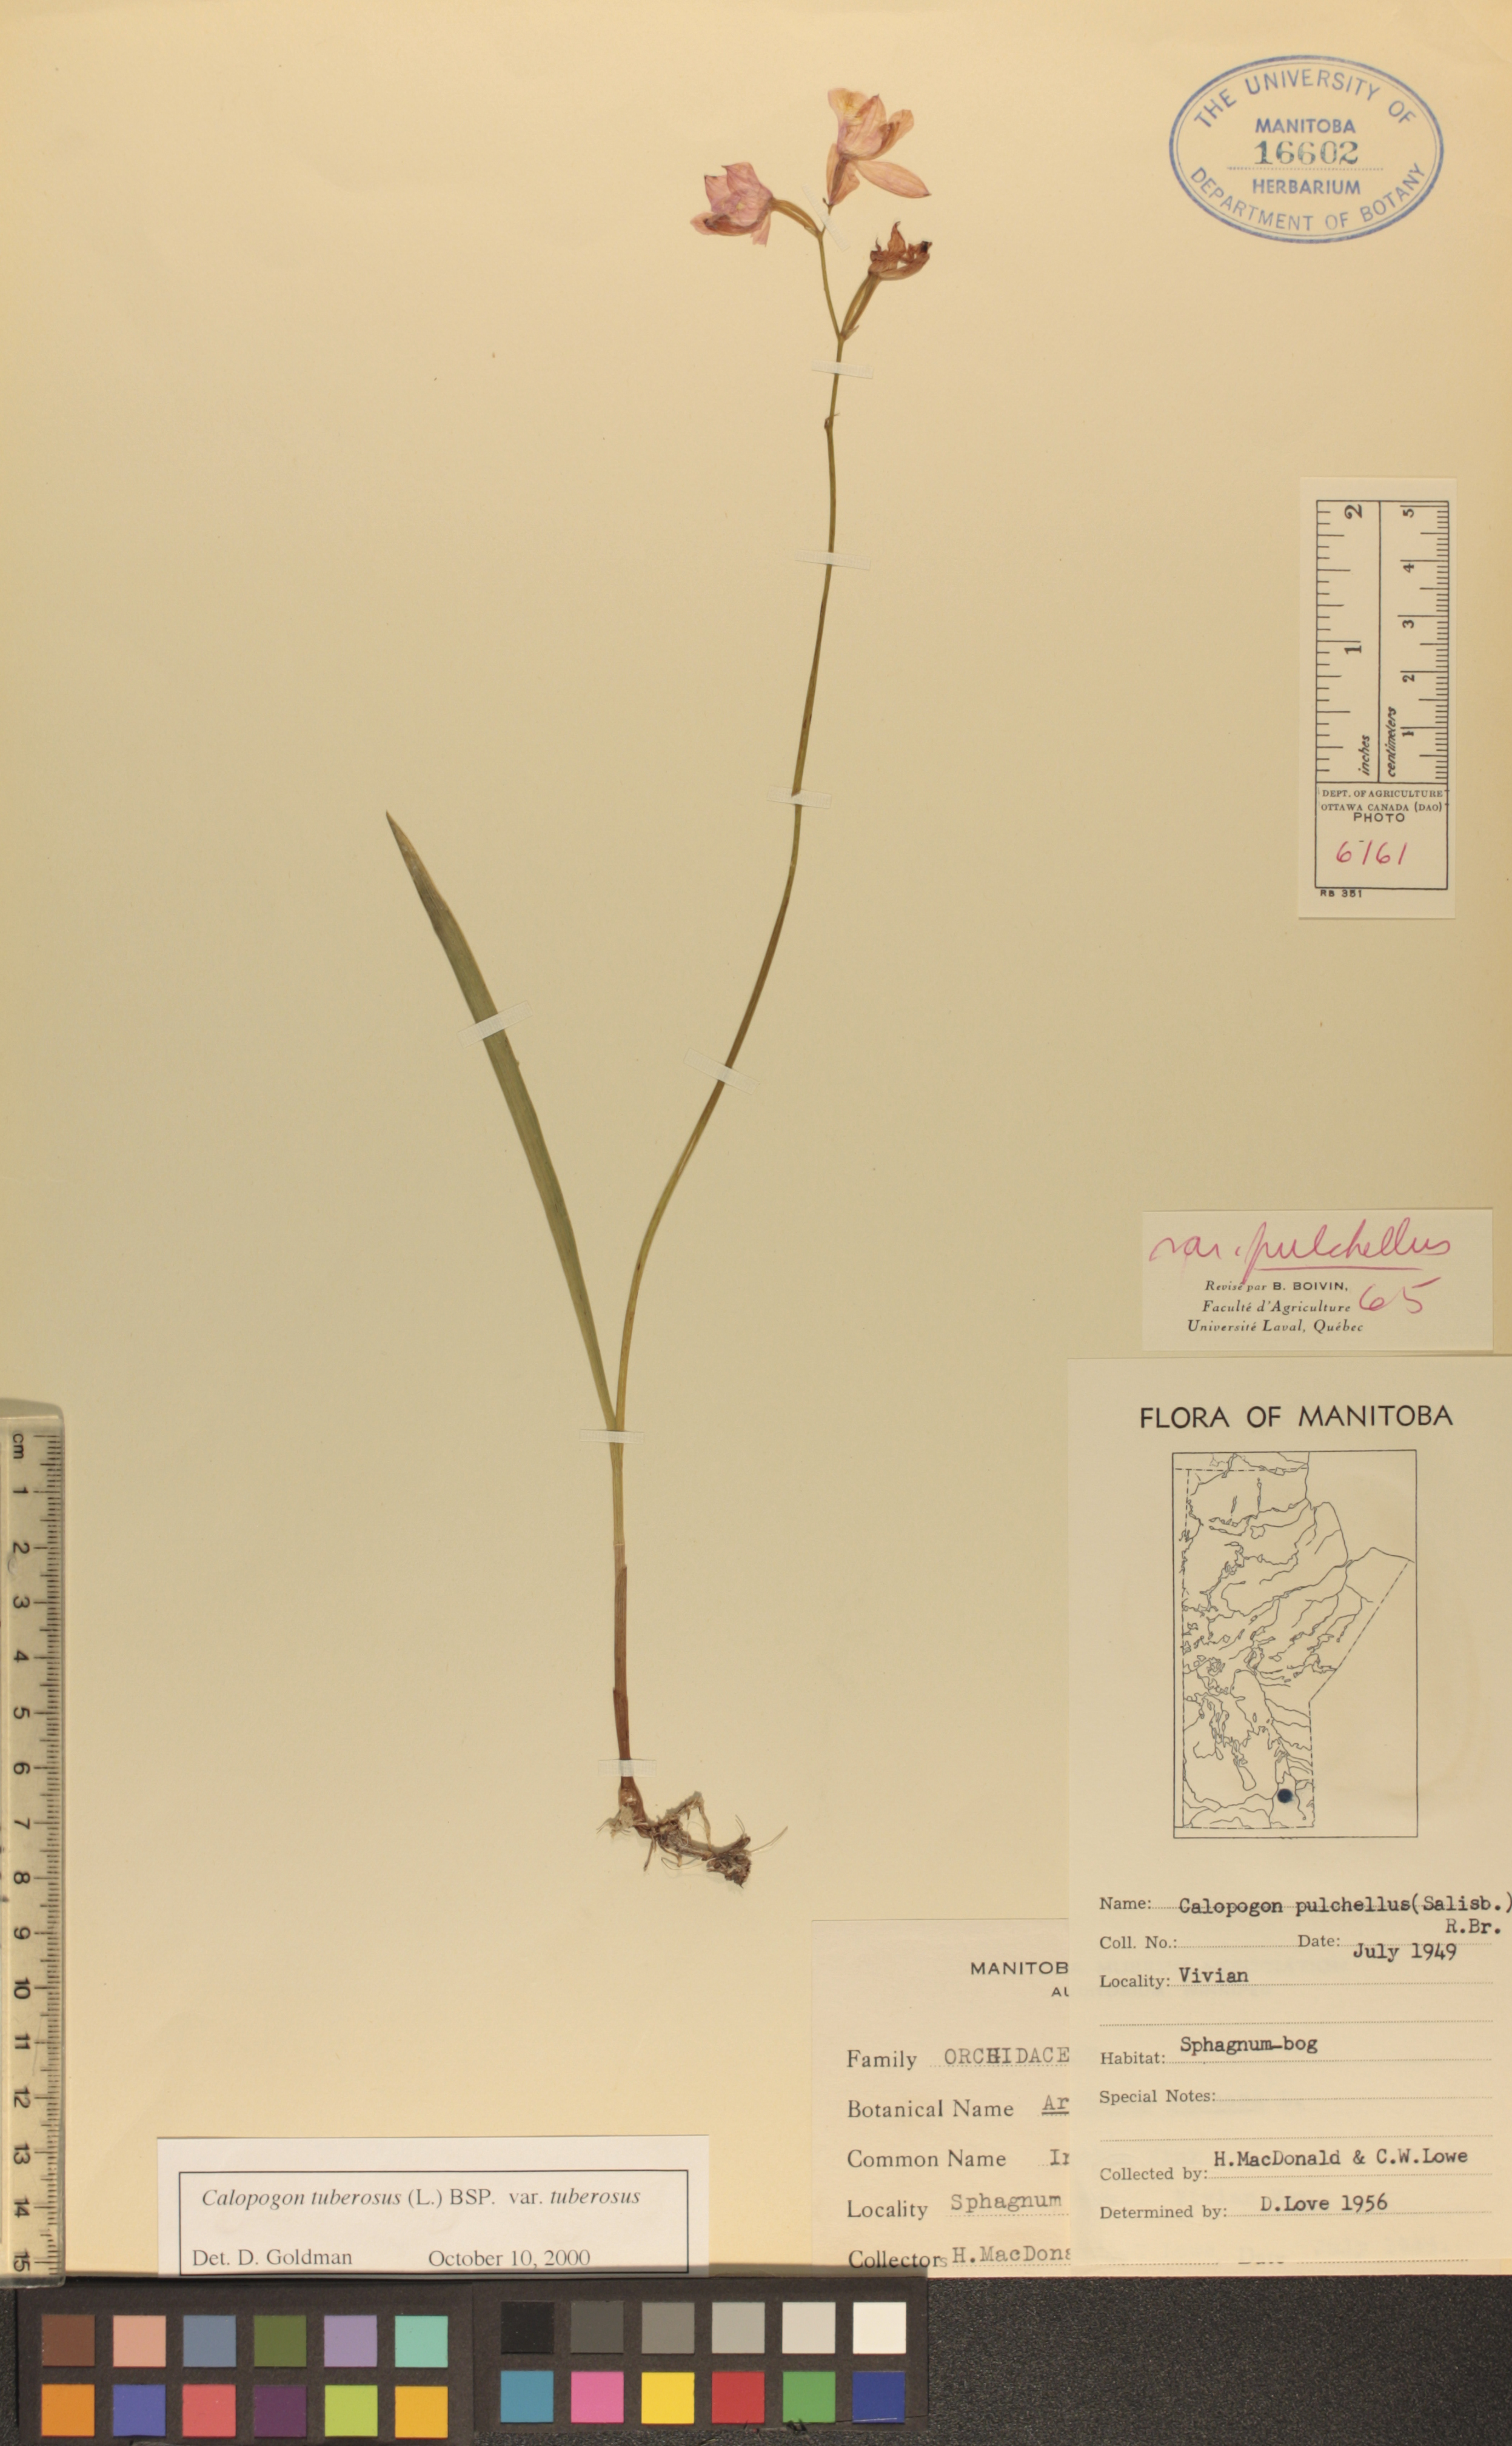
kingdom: Plantae
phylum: Tracheophyta
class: Liliopsida
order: Asparagales
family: Orchidaceae
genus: Calopogon
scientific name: Calopogon tuberosus
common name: Grass-pink
